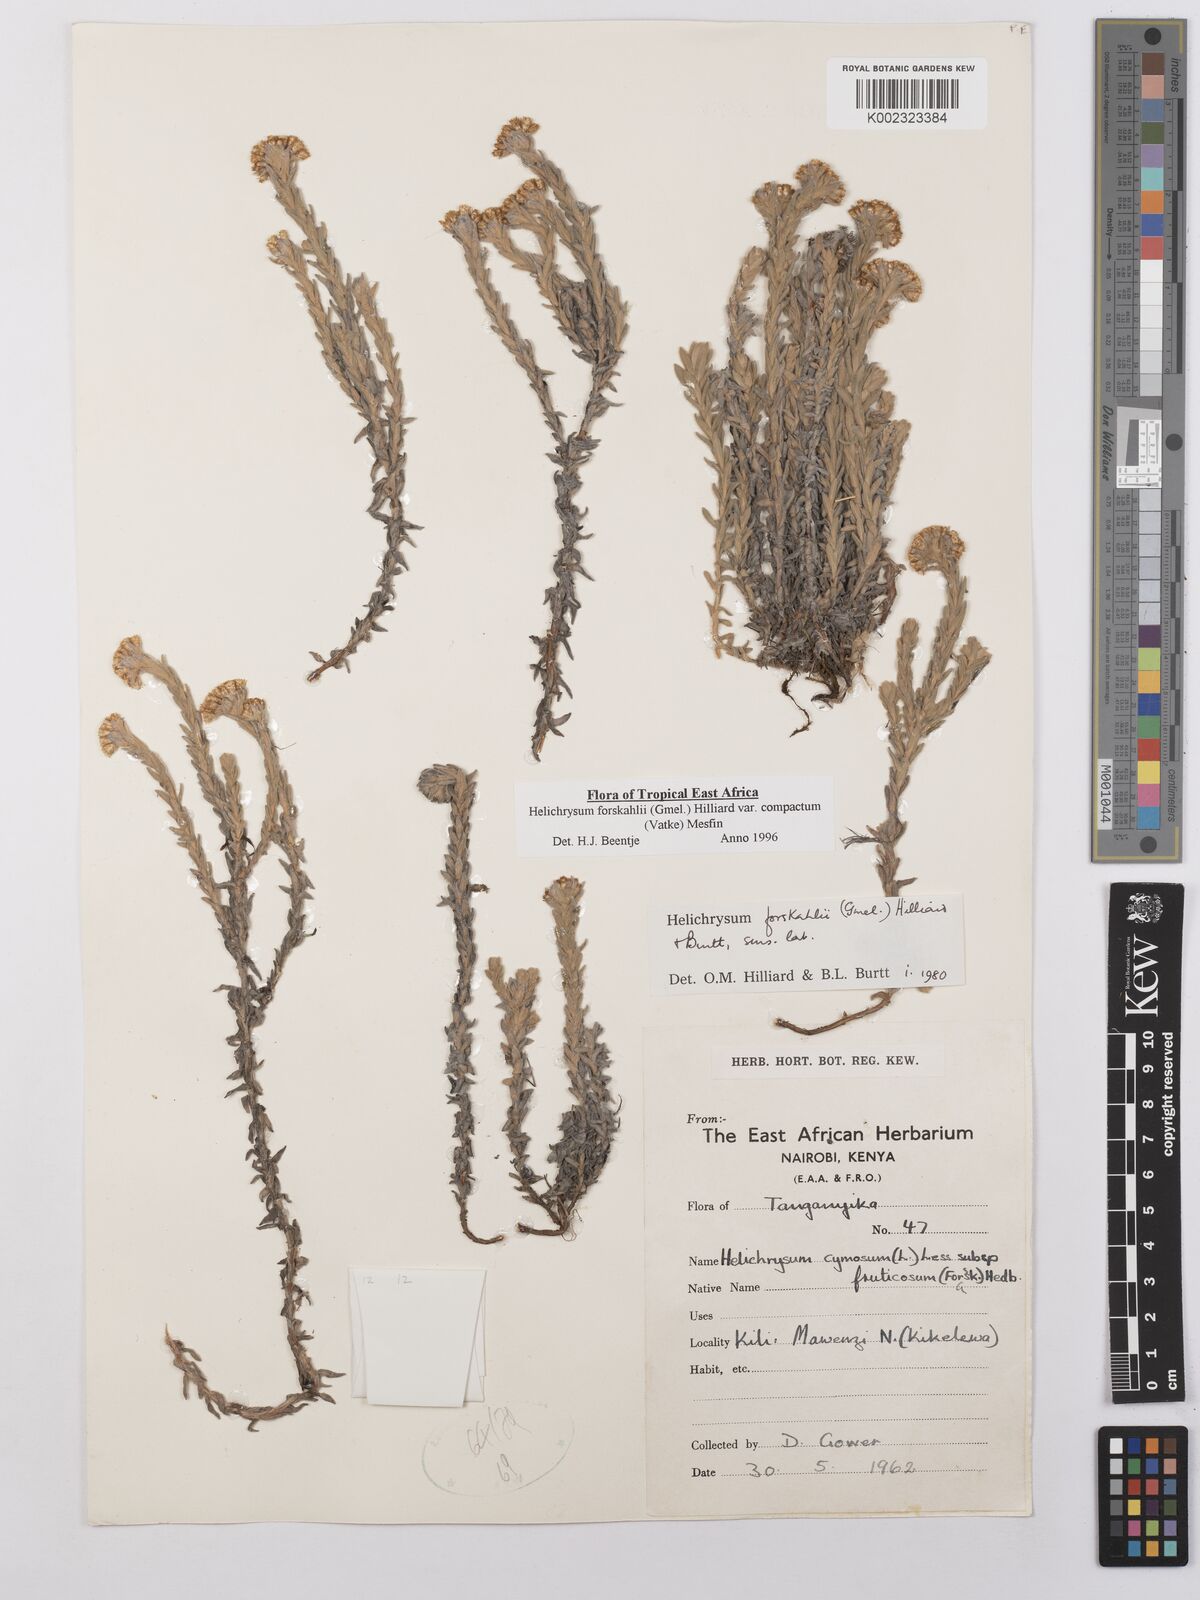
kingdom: Plantae
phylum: Tracheophyta
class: Magnoliopsida
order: Asterales
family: Asteraceae
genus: Helichrysum
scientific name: Helichrysum forskahlii
